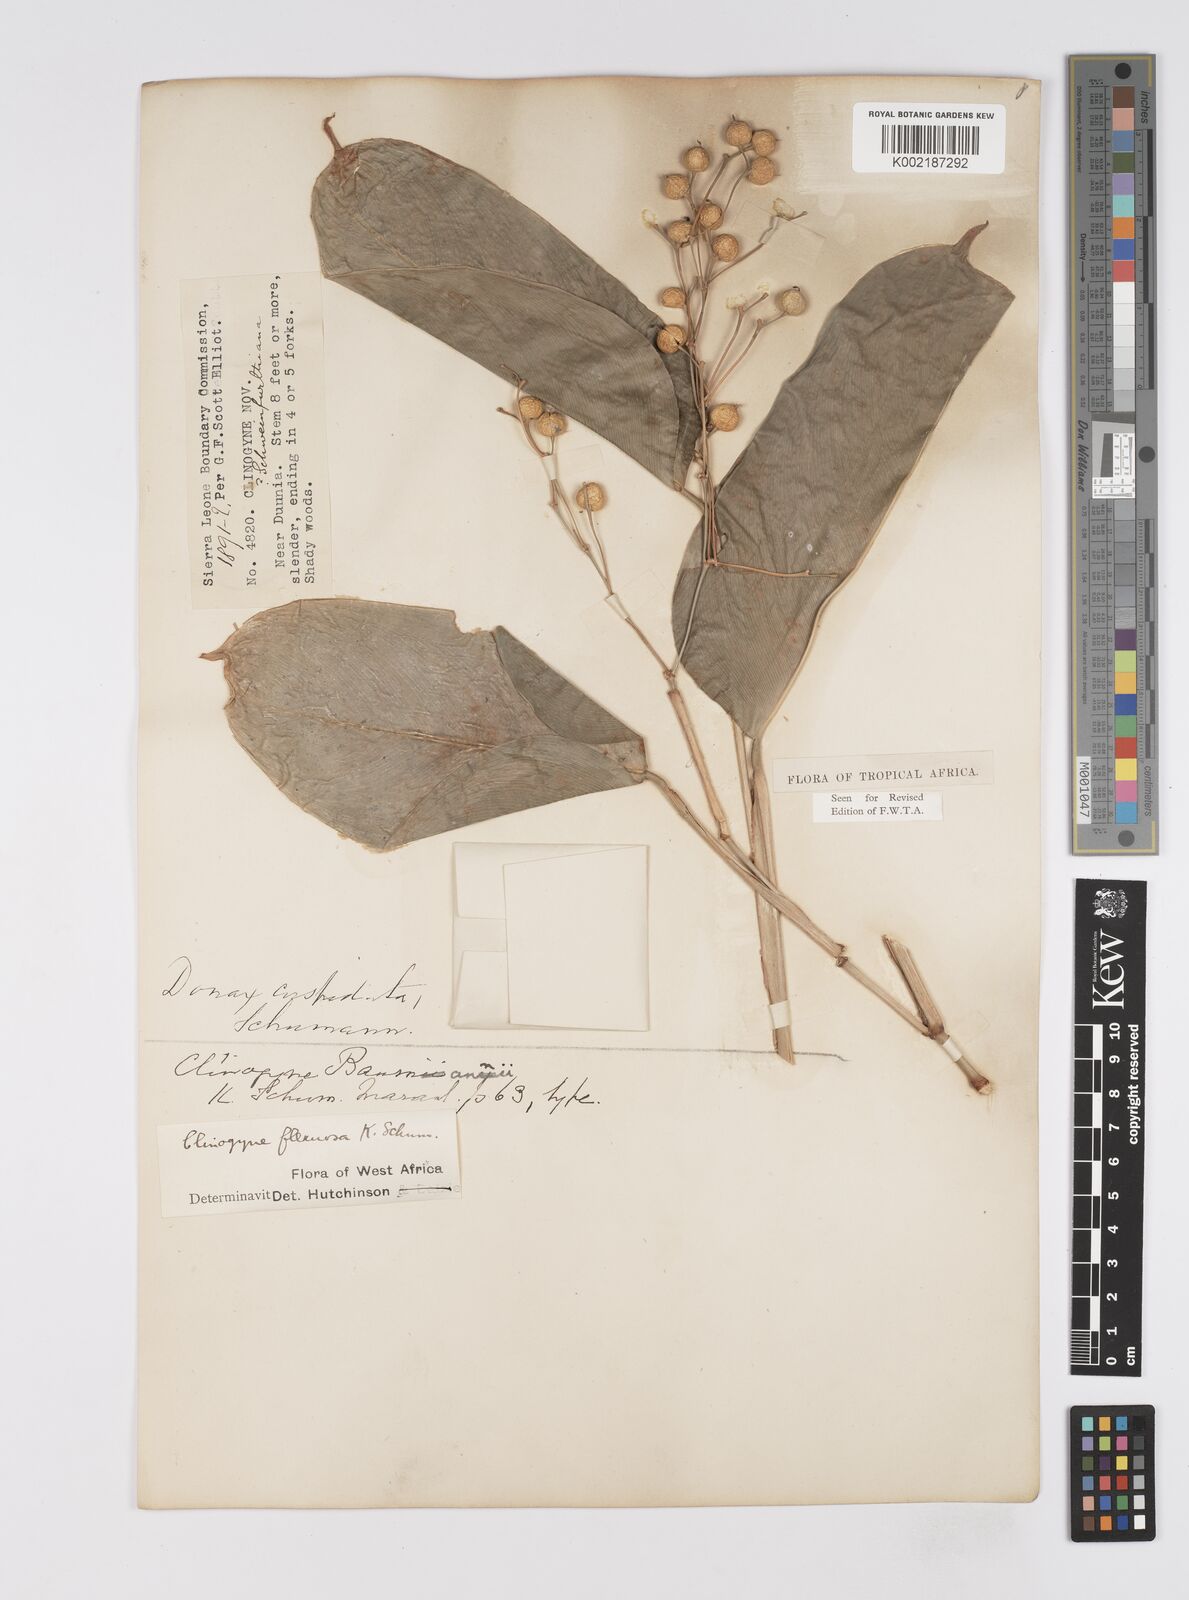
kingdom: Plantae
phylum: Tracheophyta
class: Liliopsida
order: Zingiberales
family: Marantaceae
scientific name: Marantaceae
